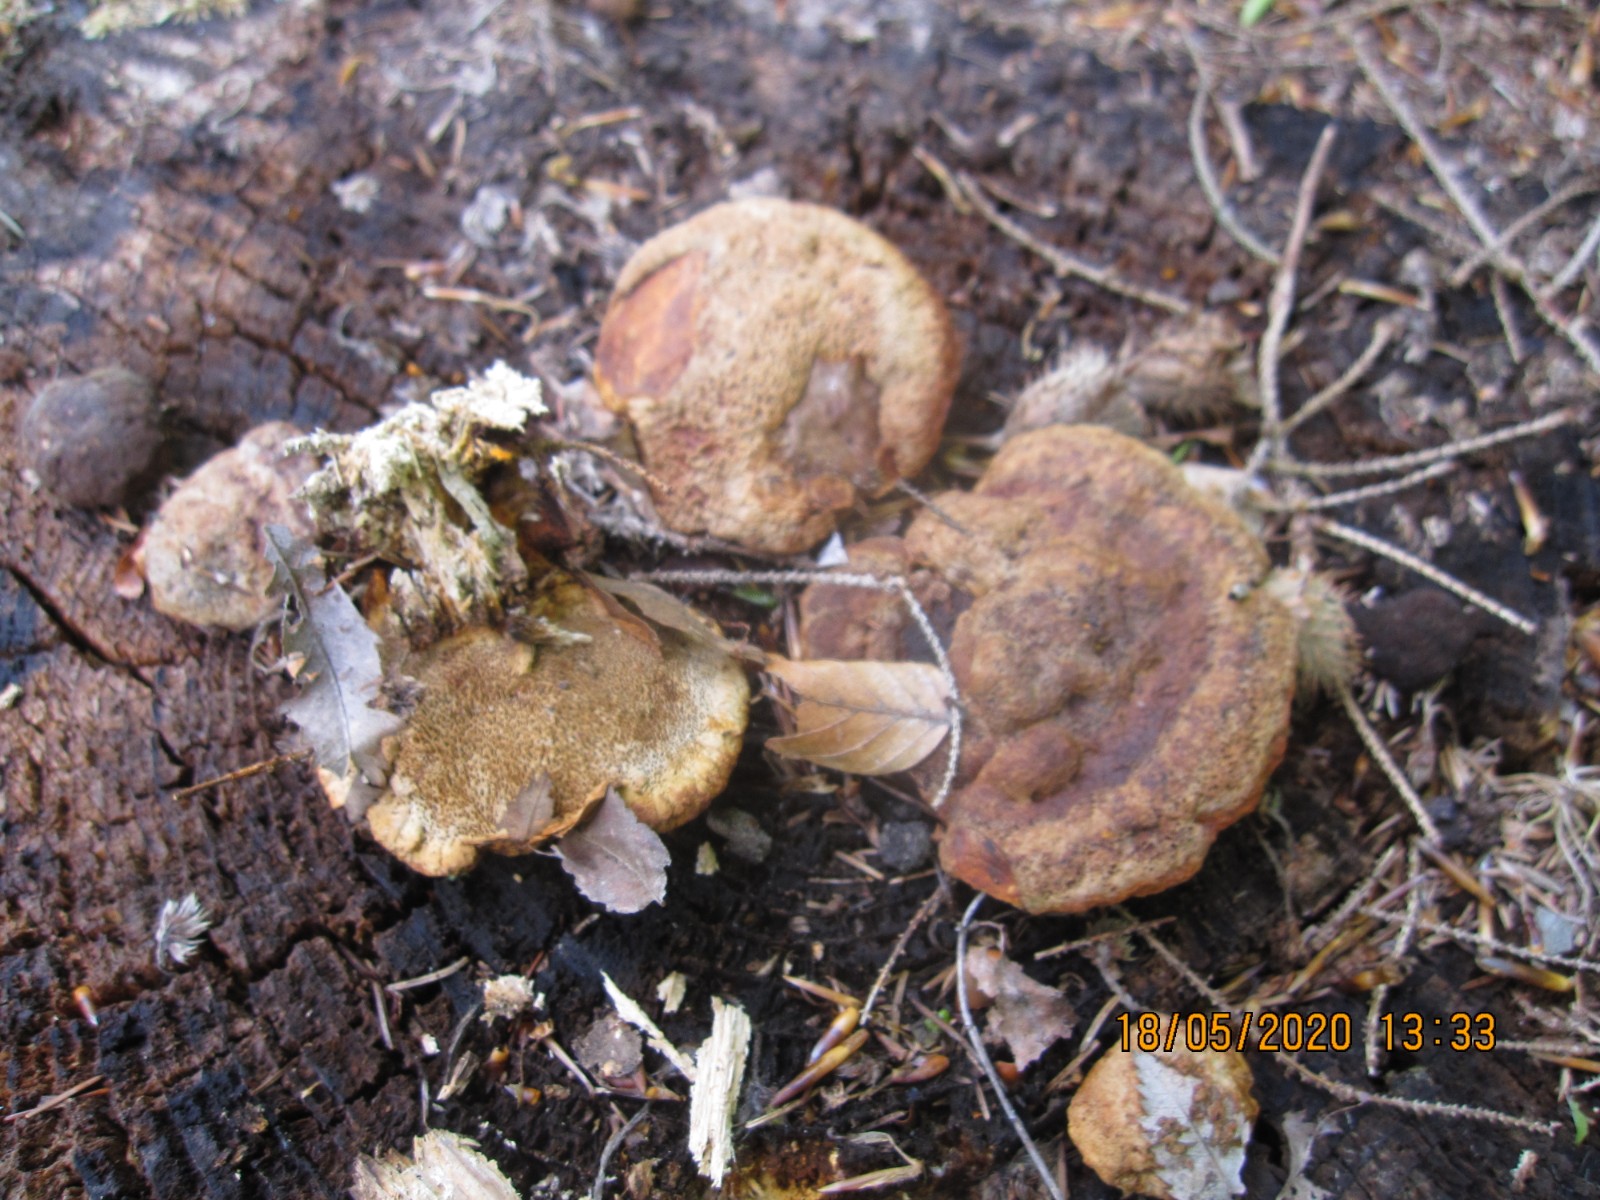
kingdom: Fungi
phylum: Basidiomycota
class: Agaricomycetes
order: Gloeophyllales
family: Gloeophyllaceae
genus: Gloeophyllum
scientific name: Gloeophyllum odoratum
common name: duftende korkhat
